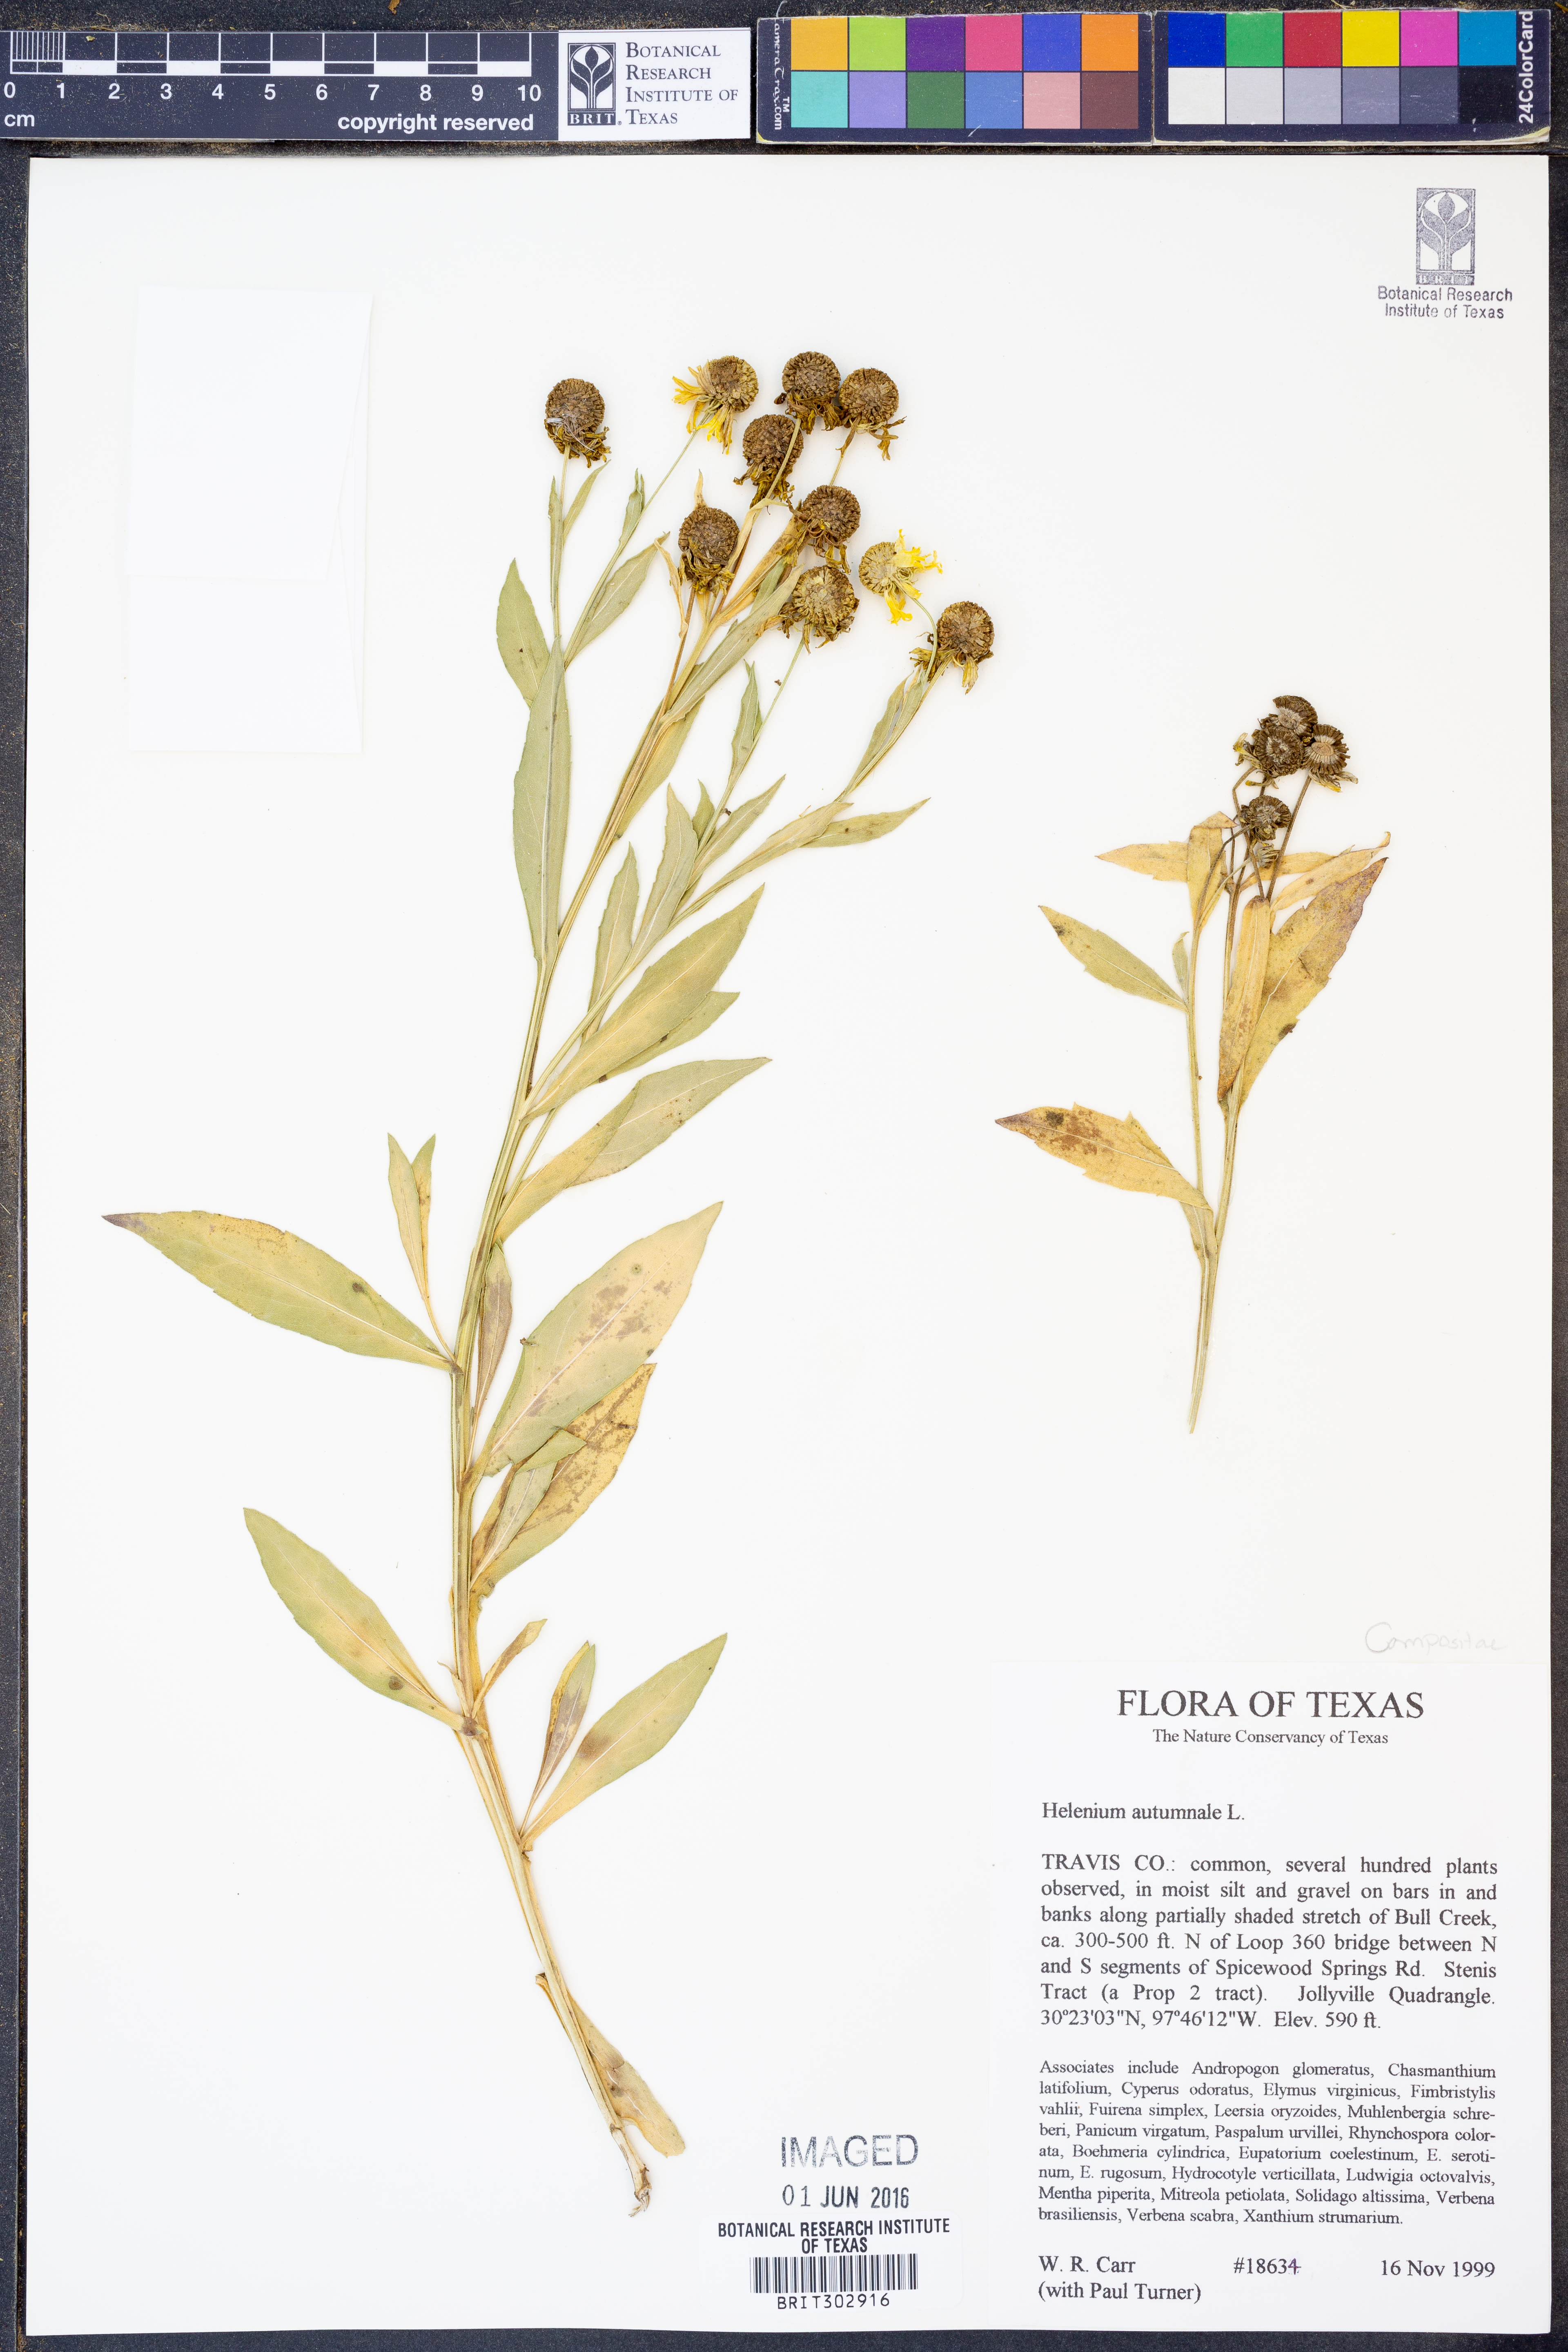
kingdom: Plantae
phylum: Tracheophyta
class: Magnoliopsida
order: Asterales
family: Asteraceae
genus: Helenium
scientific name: Helenium autumnale
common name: Sneezeweed
